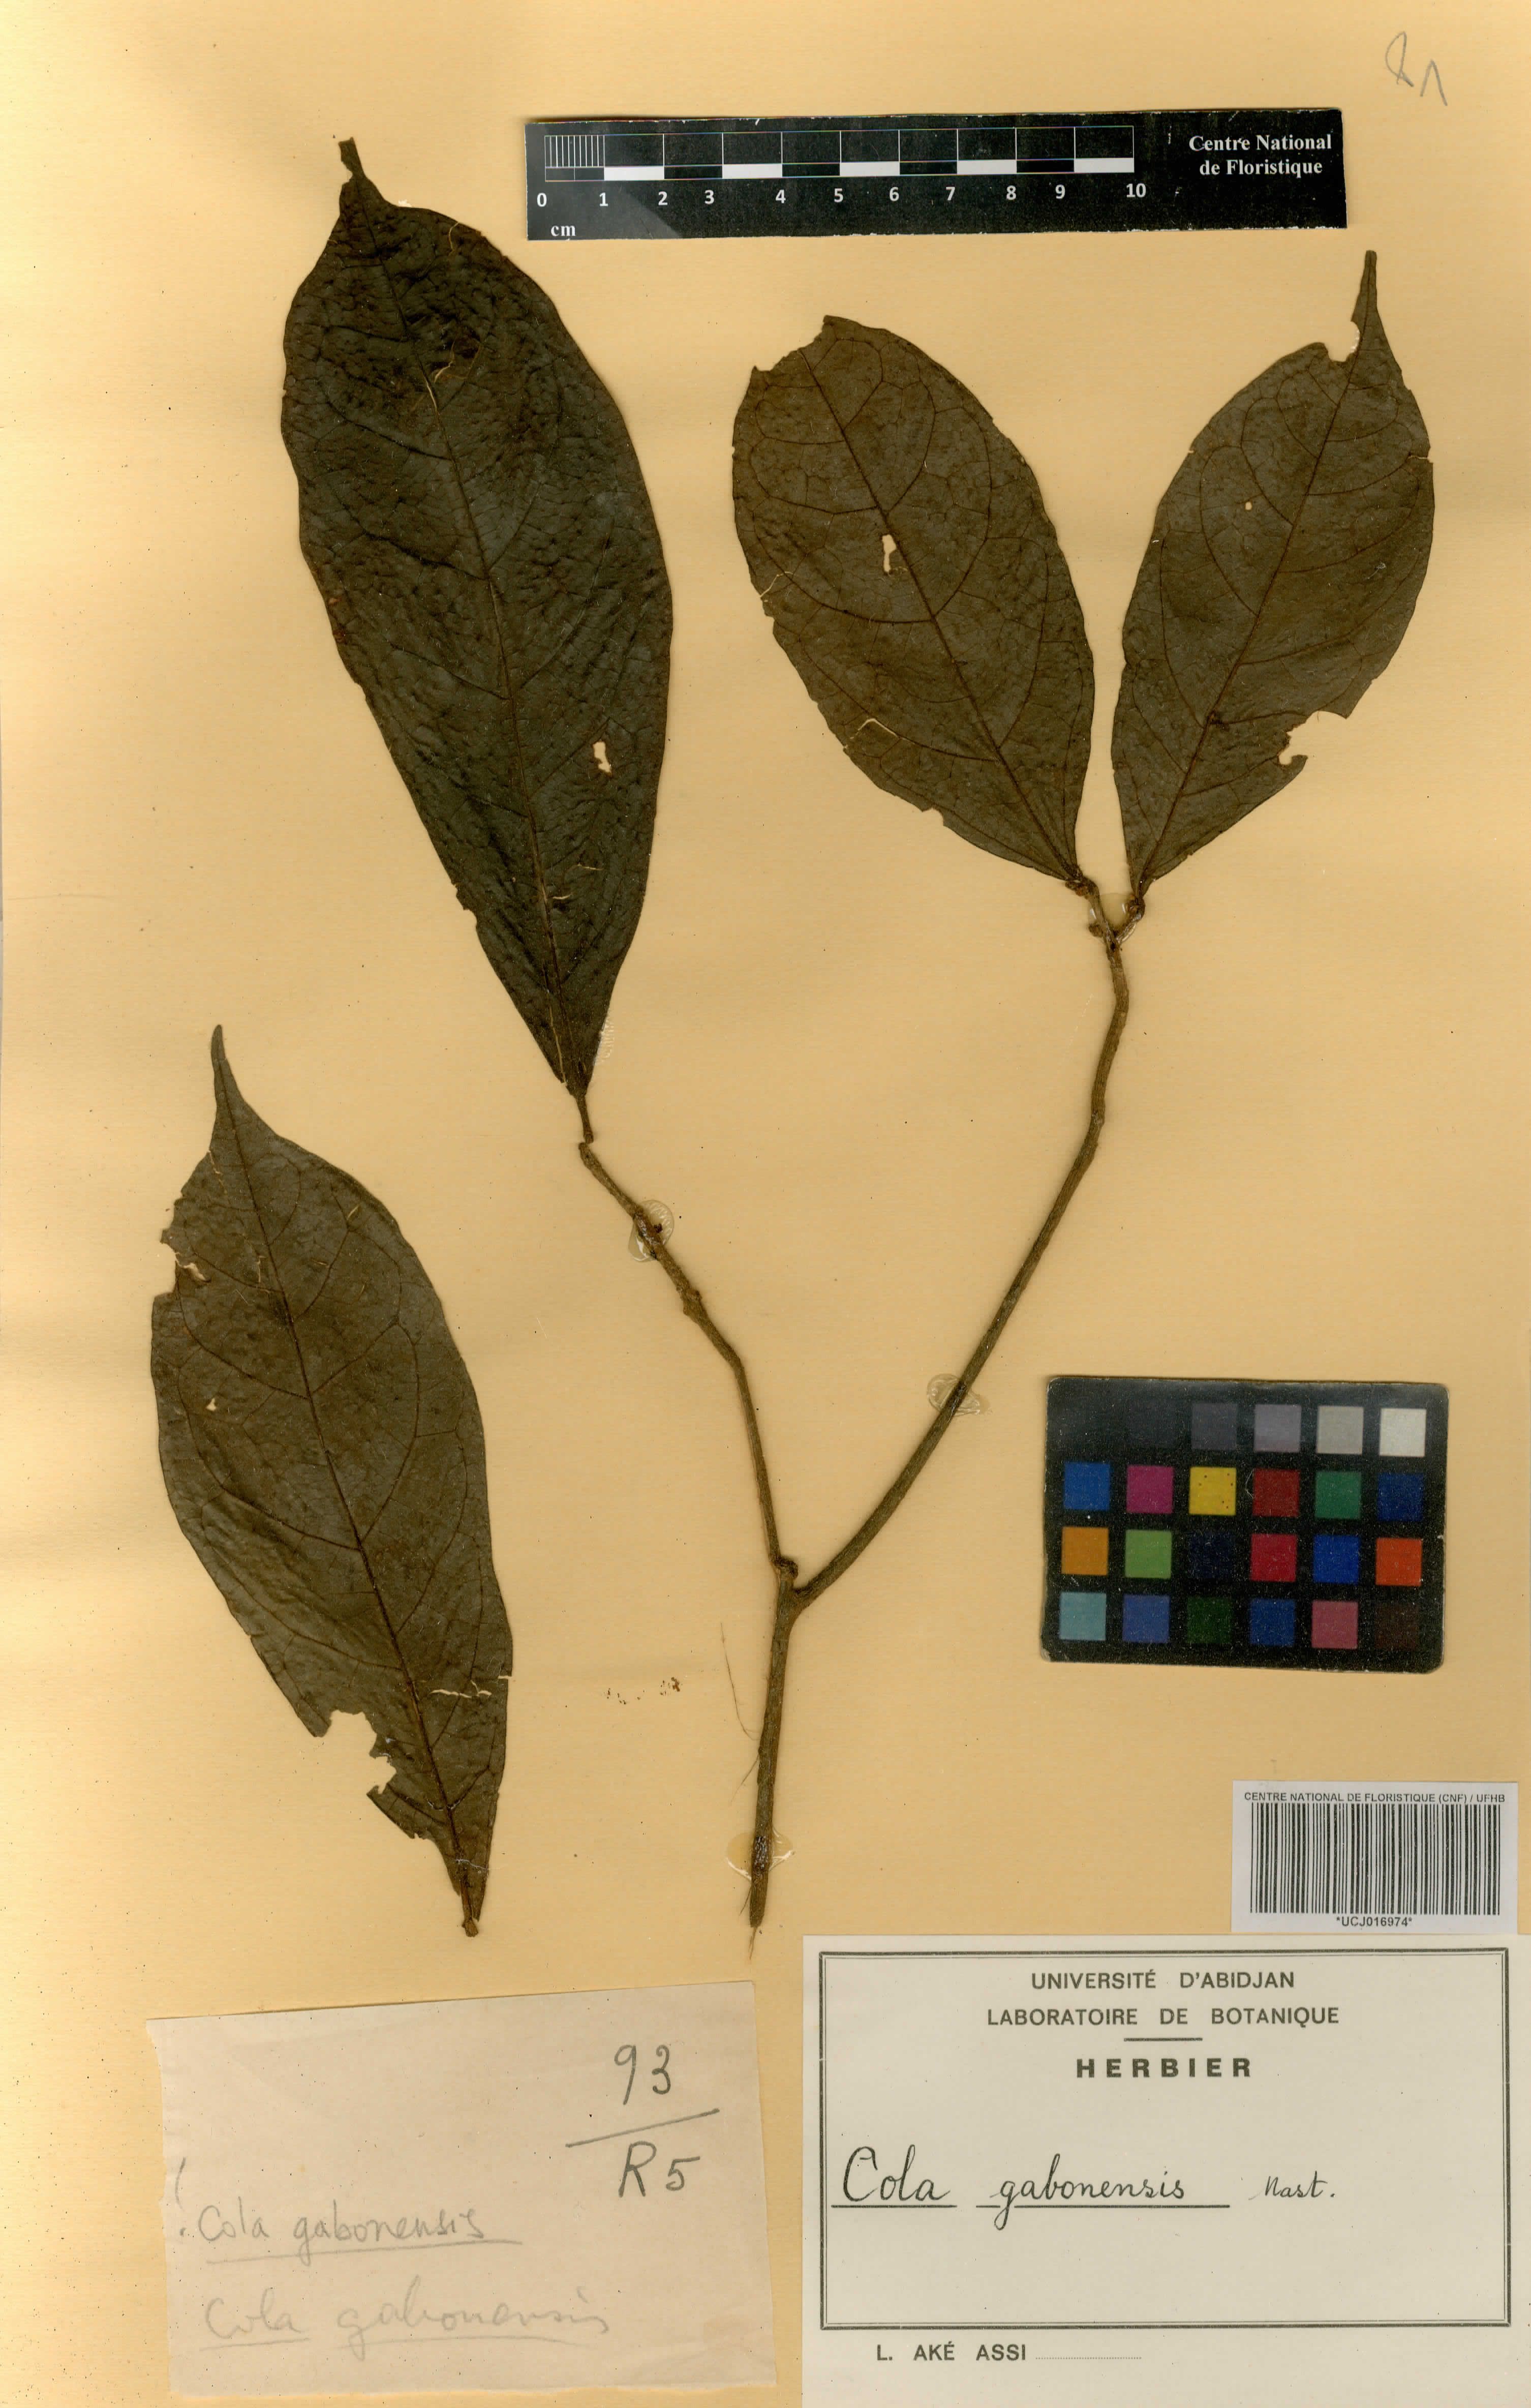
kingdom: Plantae
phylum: Tracheophyta
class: Magnoliopsida
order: Malvales
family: Malvaceae
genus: Cola
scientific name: Cola gabonensis
